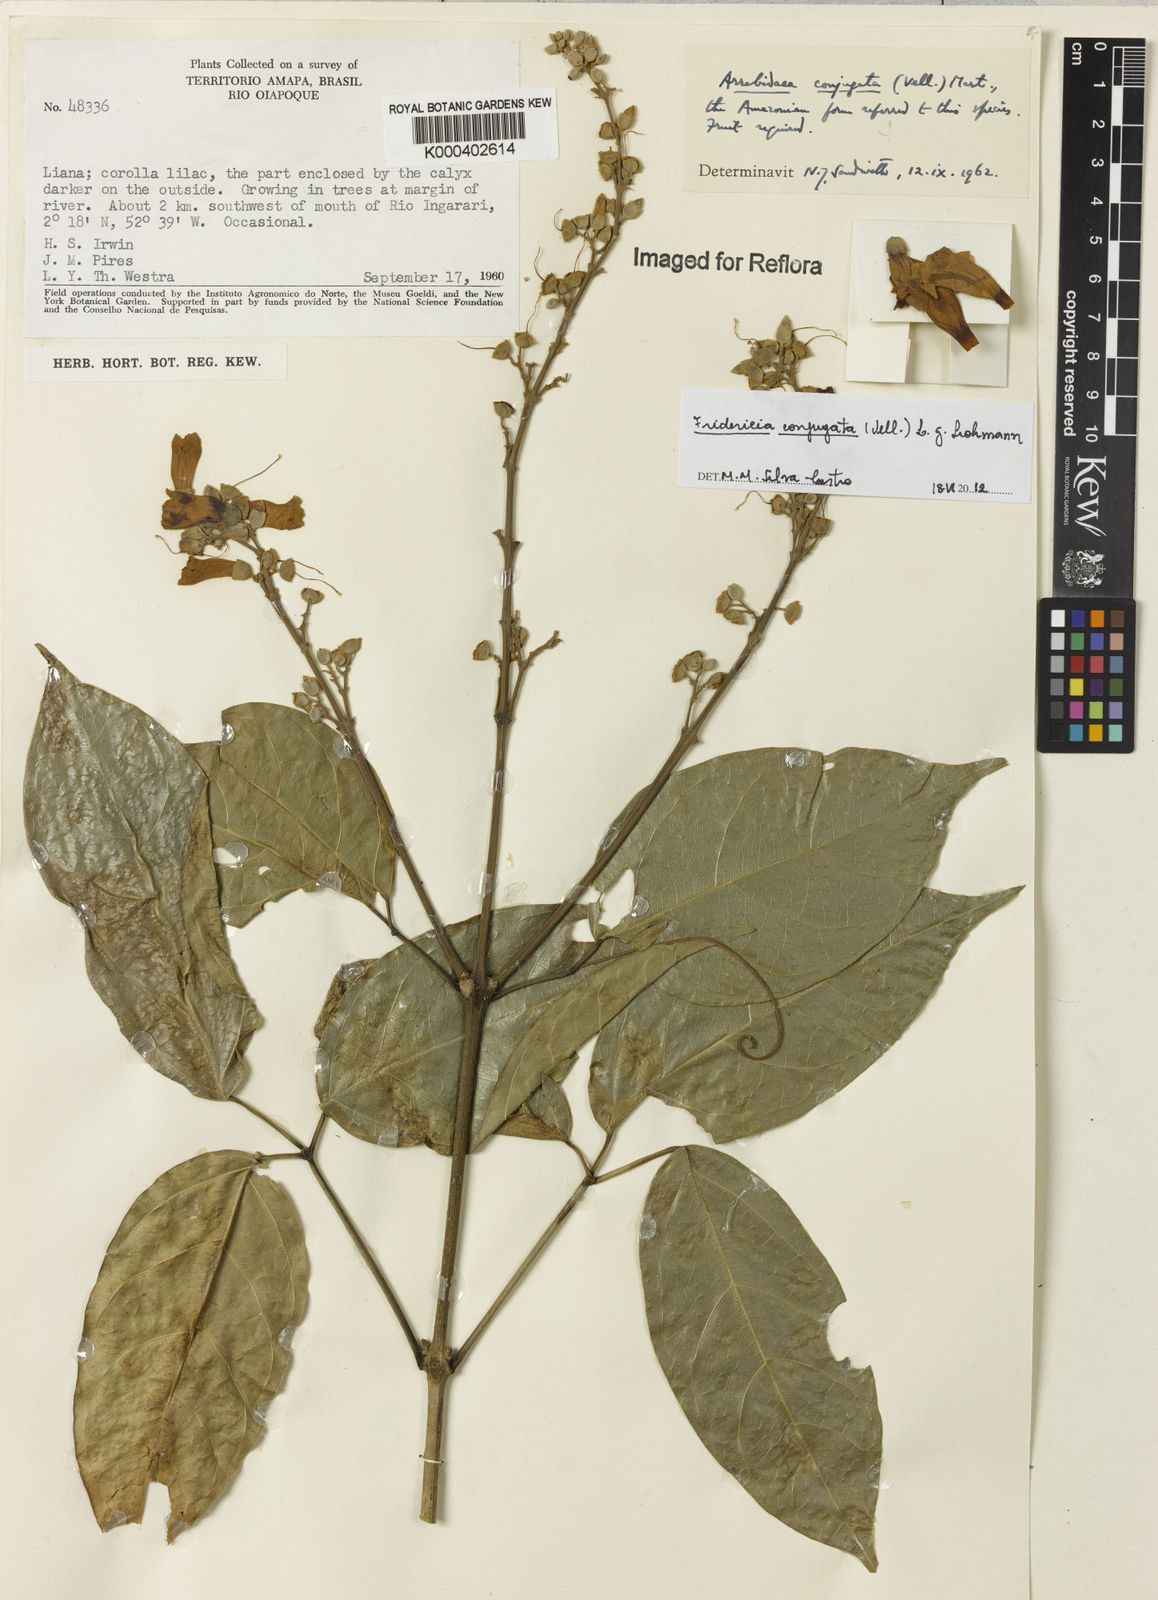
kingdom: Plantae
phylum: Tracheophyta
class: Magnoliopsida
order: Lamiales
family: Bignoniaceae
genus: Fridericia
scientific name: Fridericia conjugata
